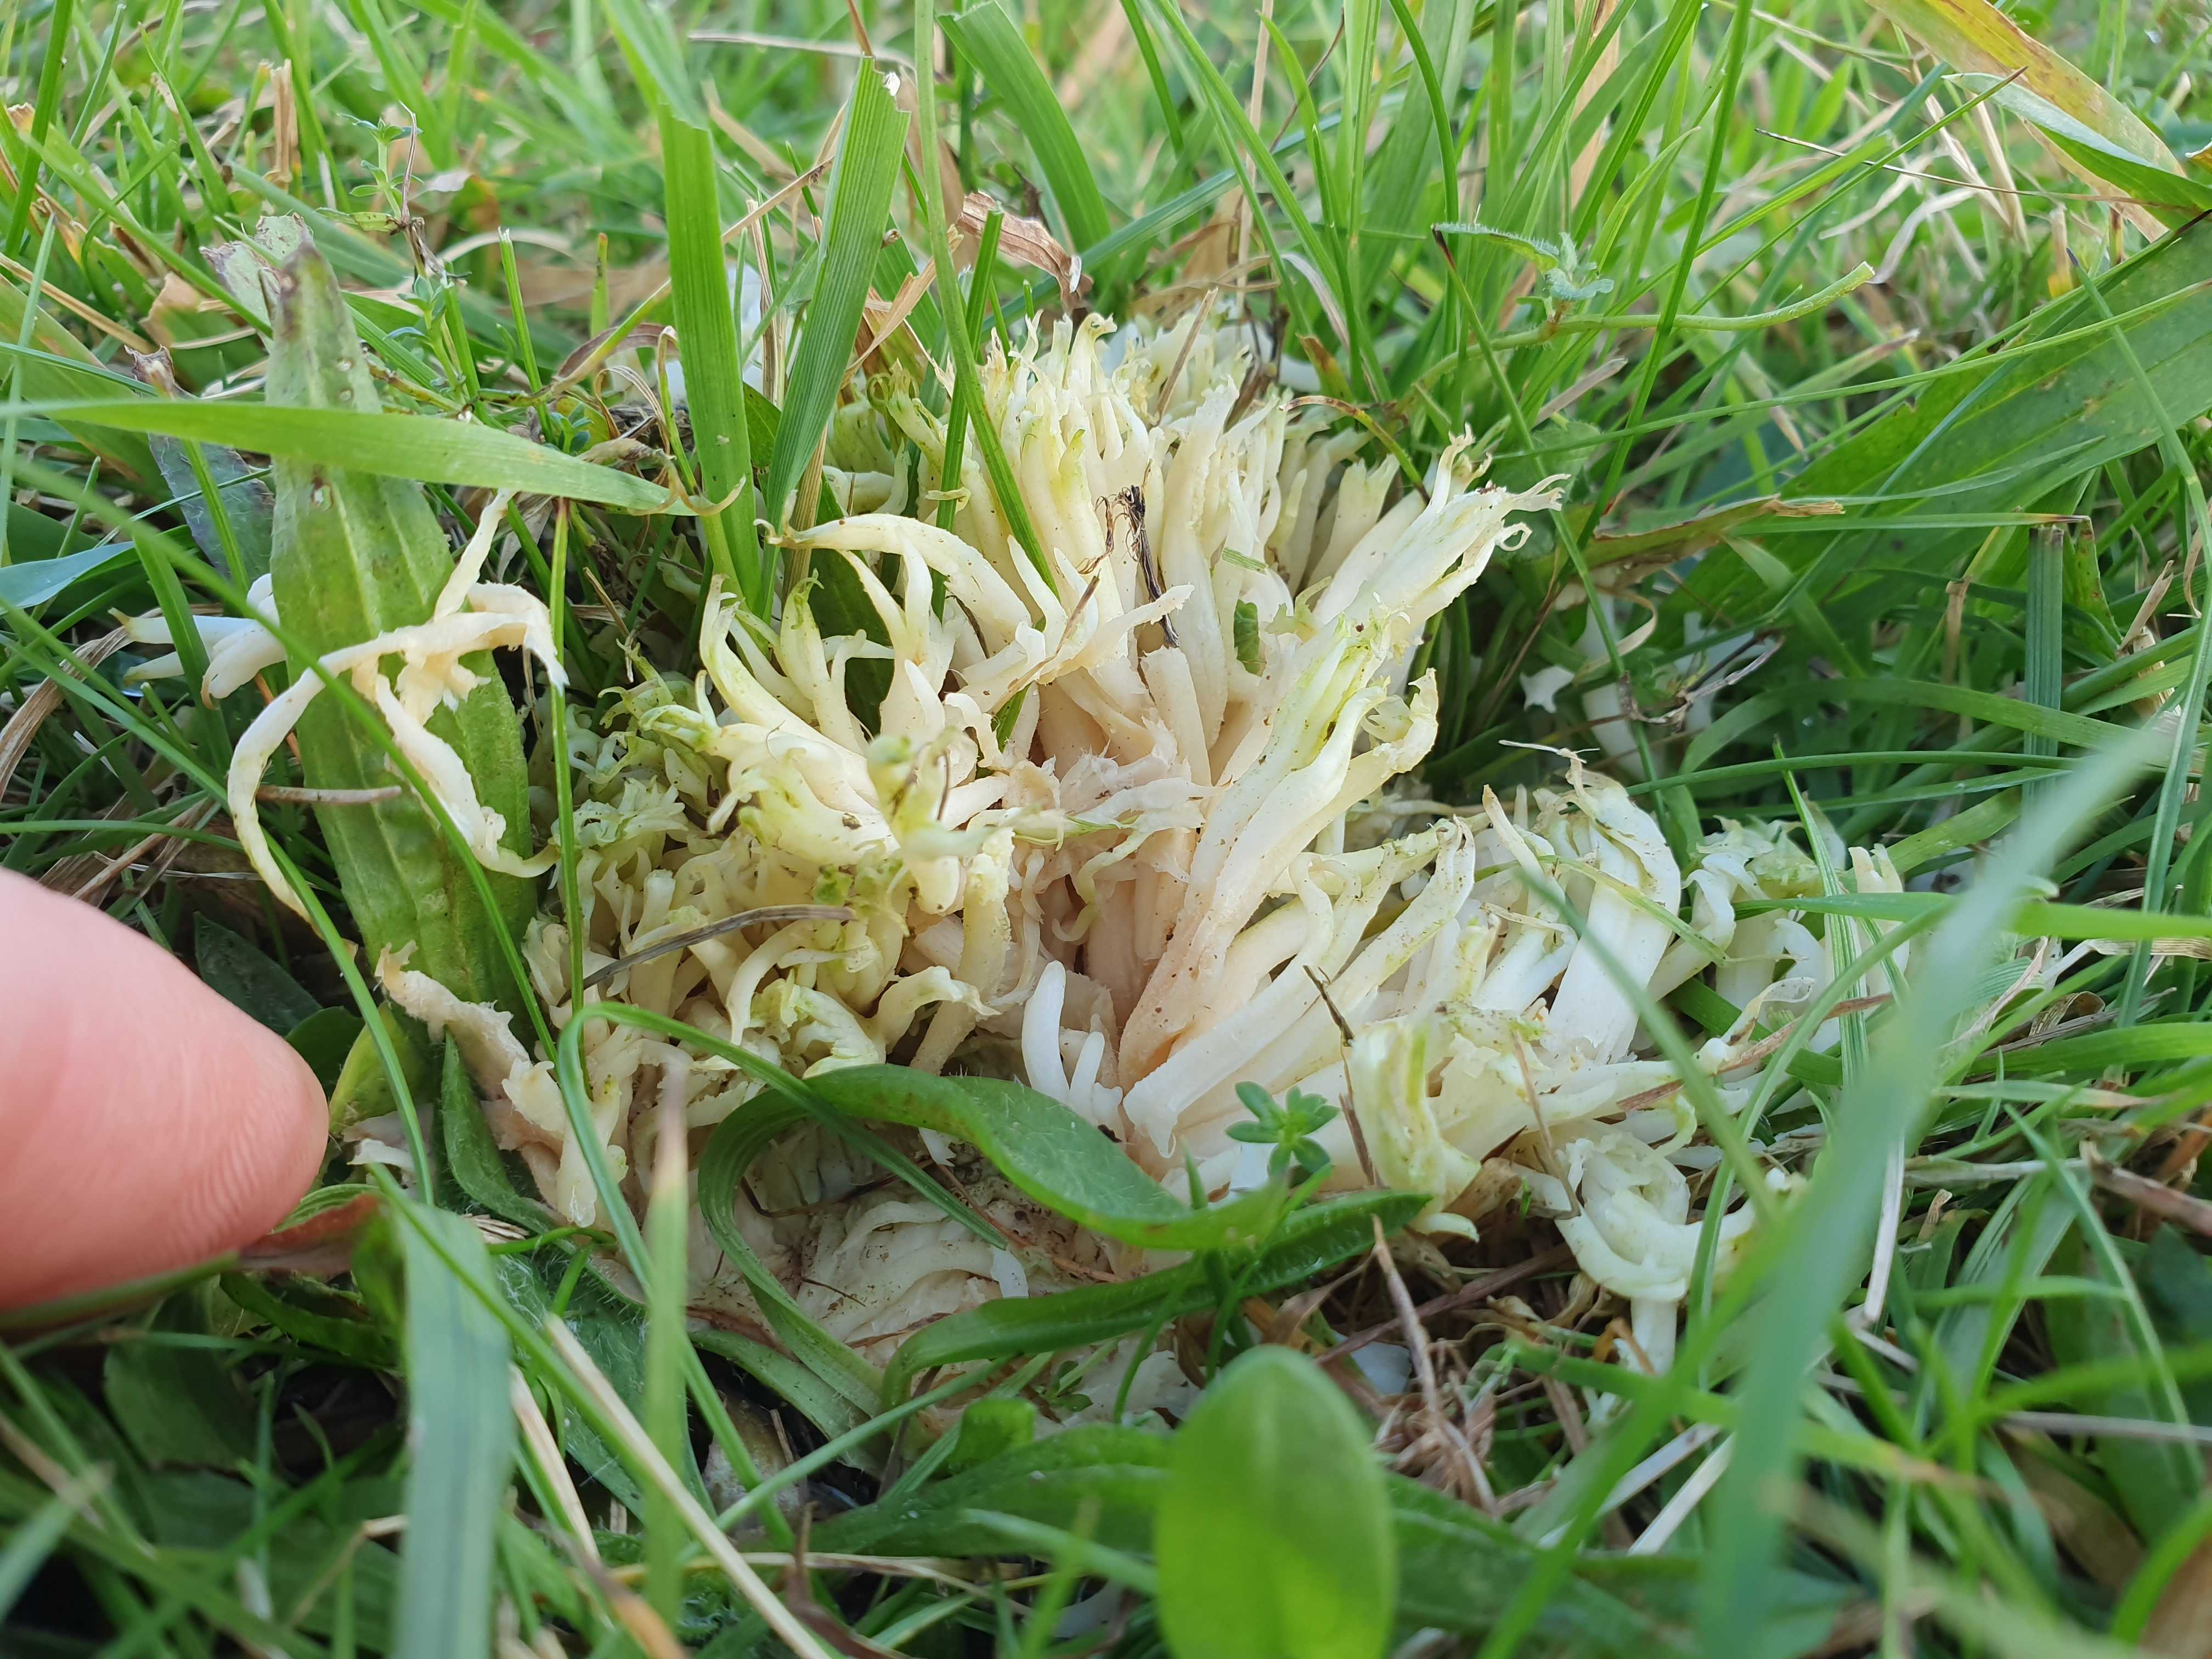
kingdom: Fungi
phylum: Basidiomycota
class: Agaricomycetes
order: Agaricales
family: Clavariaceae
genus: Ramariopsis
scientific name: Ramariopsis robusta
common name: tykgrenet køllesvamp
